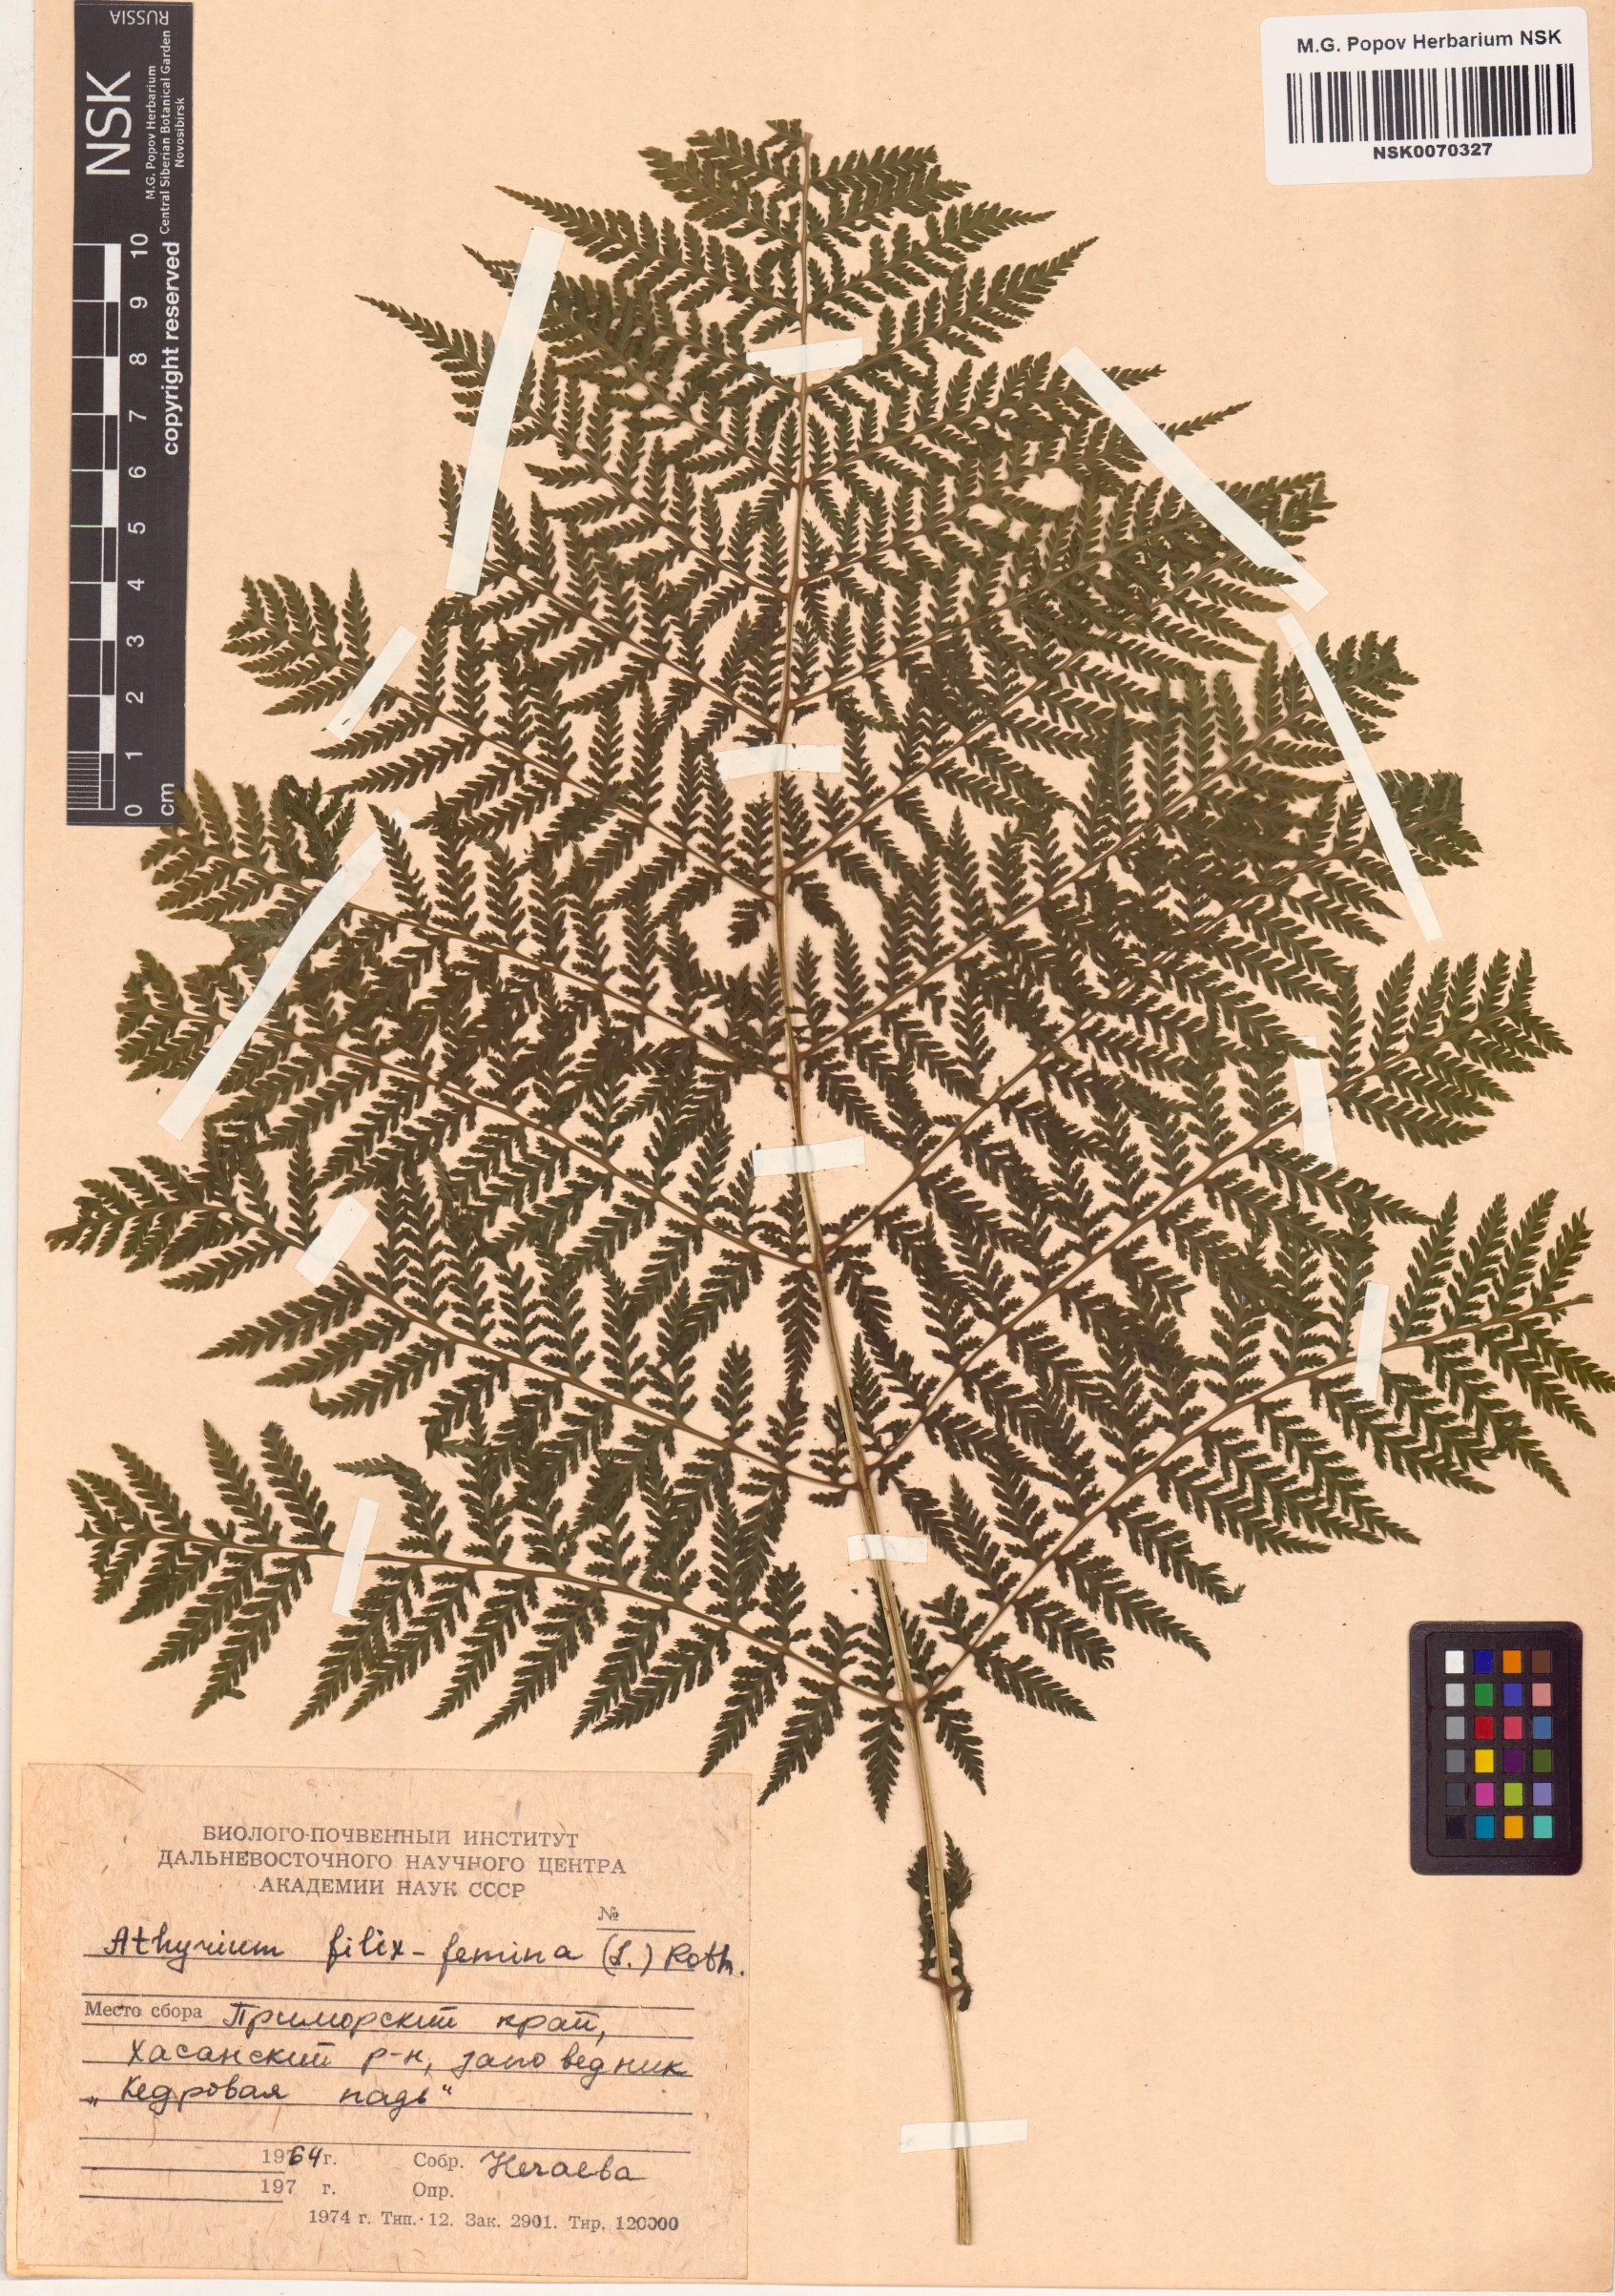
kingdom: Plantae
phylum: Tracheophyta
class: Polypodiopsida
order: Polypodiales
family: Athyriaceae
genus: Athyrium
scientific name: Athyrium filix-femina
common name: Lady fern
